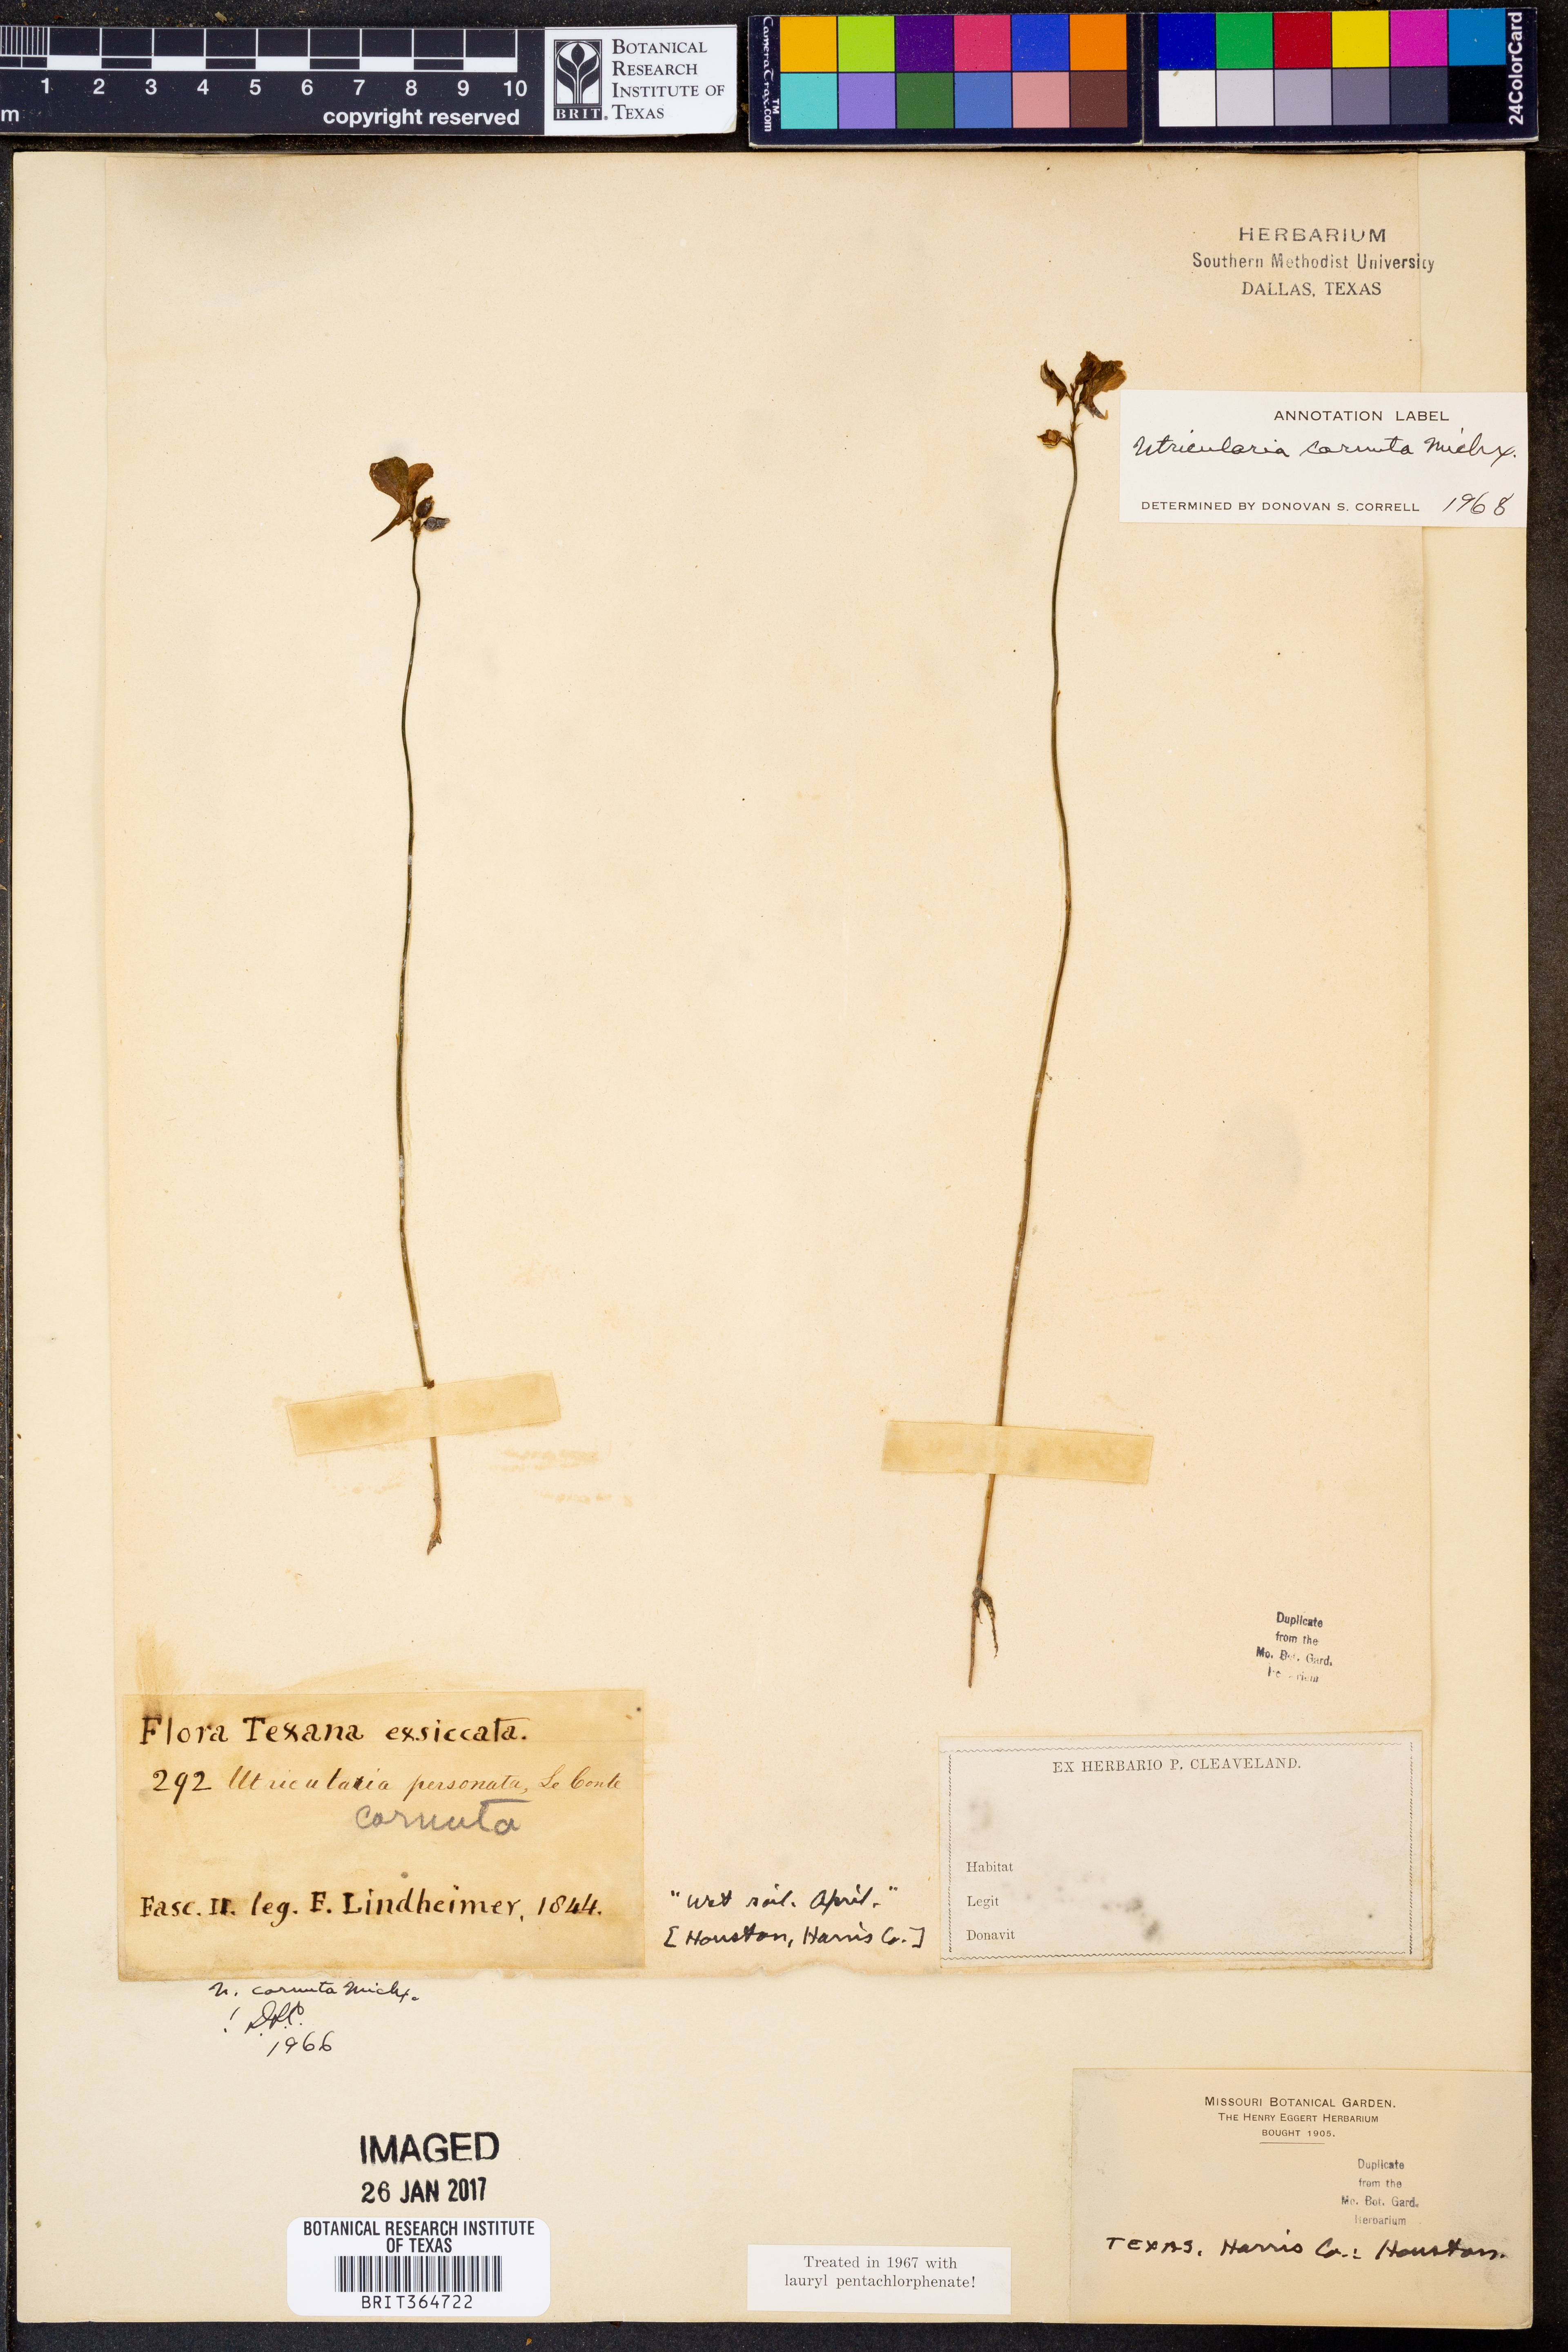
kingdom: Plantae
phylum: Tracheophyta
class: Magnoliopsida
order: Lamiales
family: Lentibulariaceae
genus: Utricularia
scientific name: Utricularia cornuta
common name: Horned bladderwort
